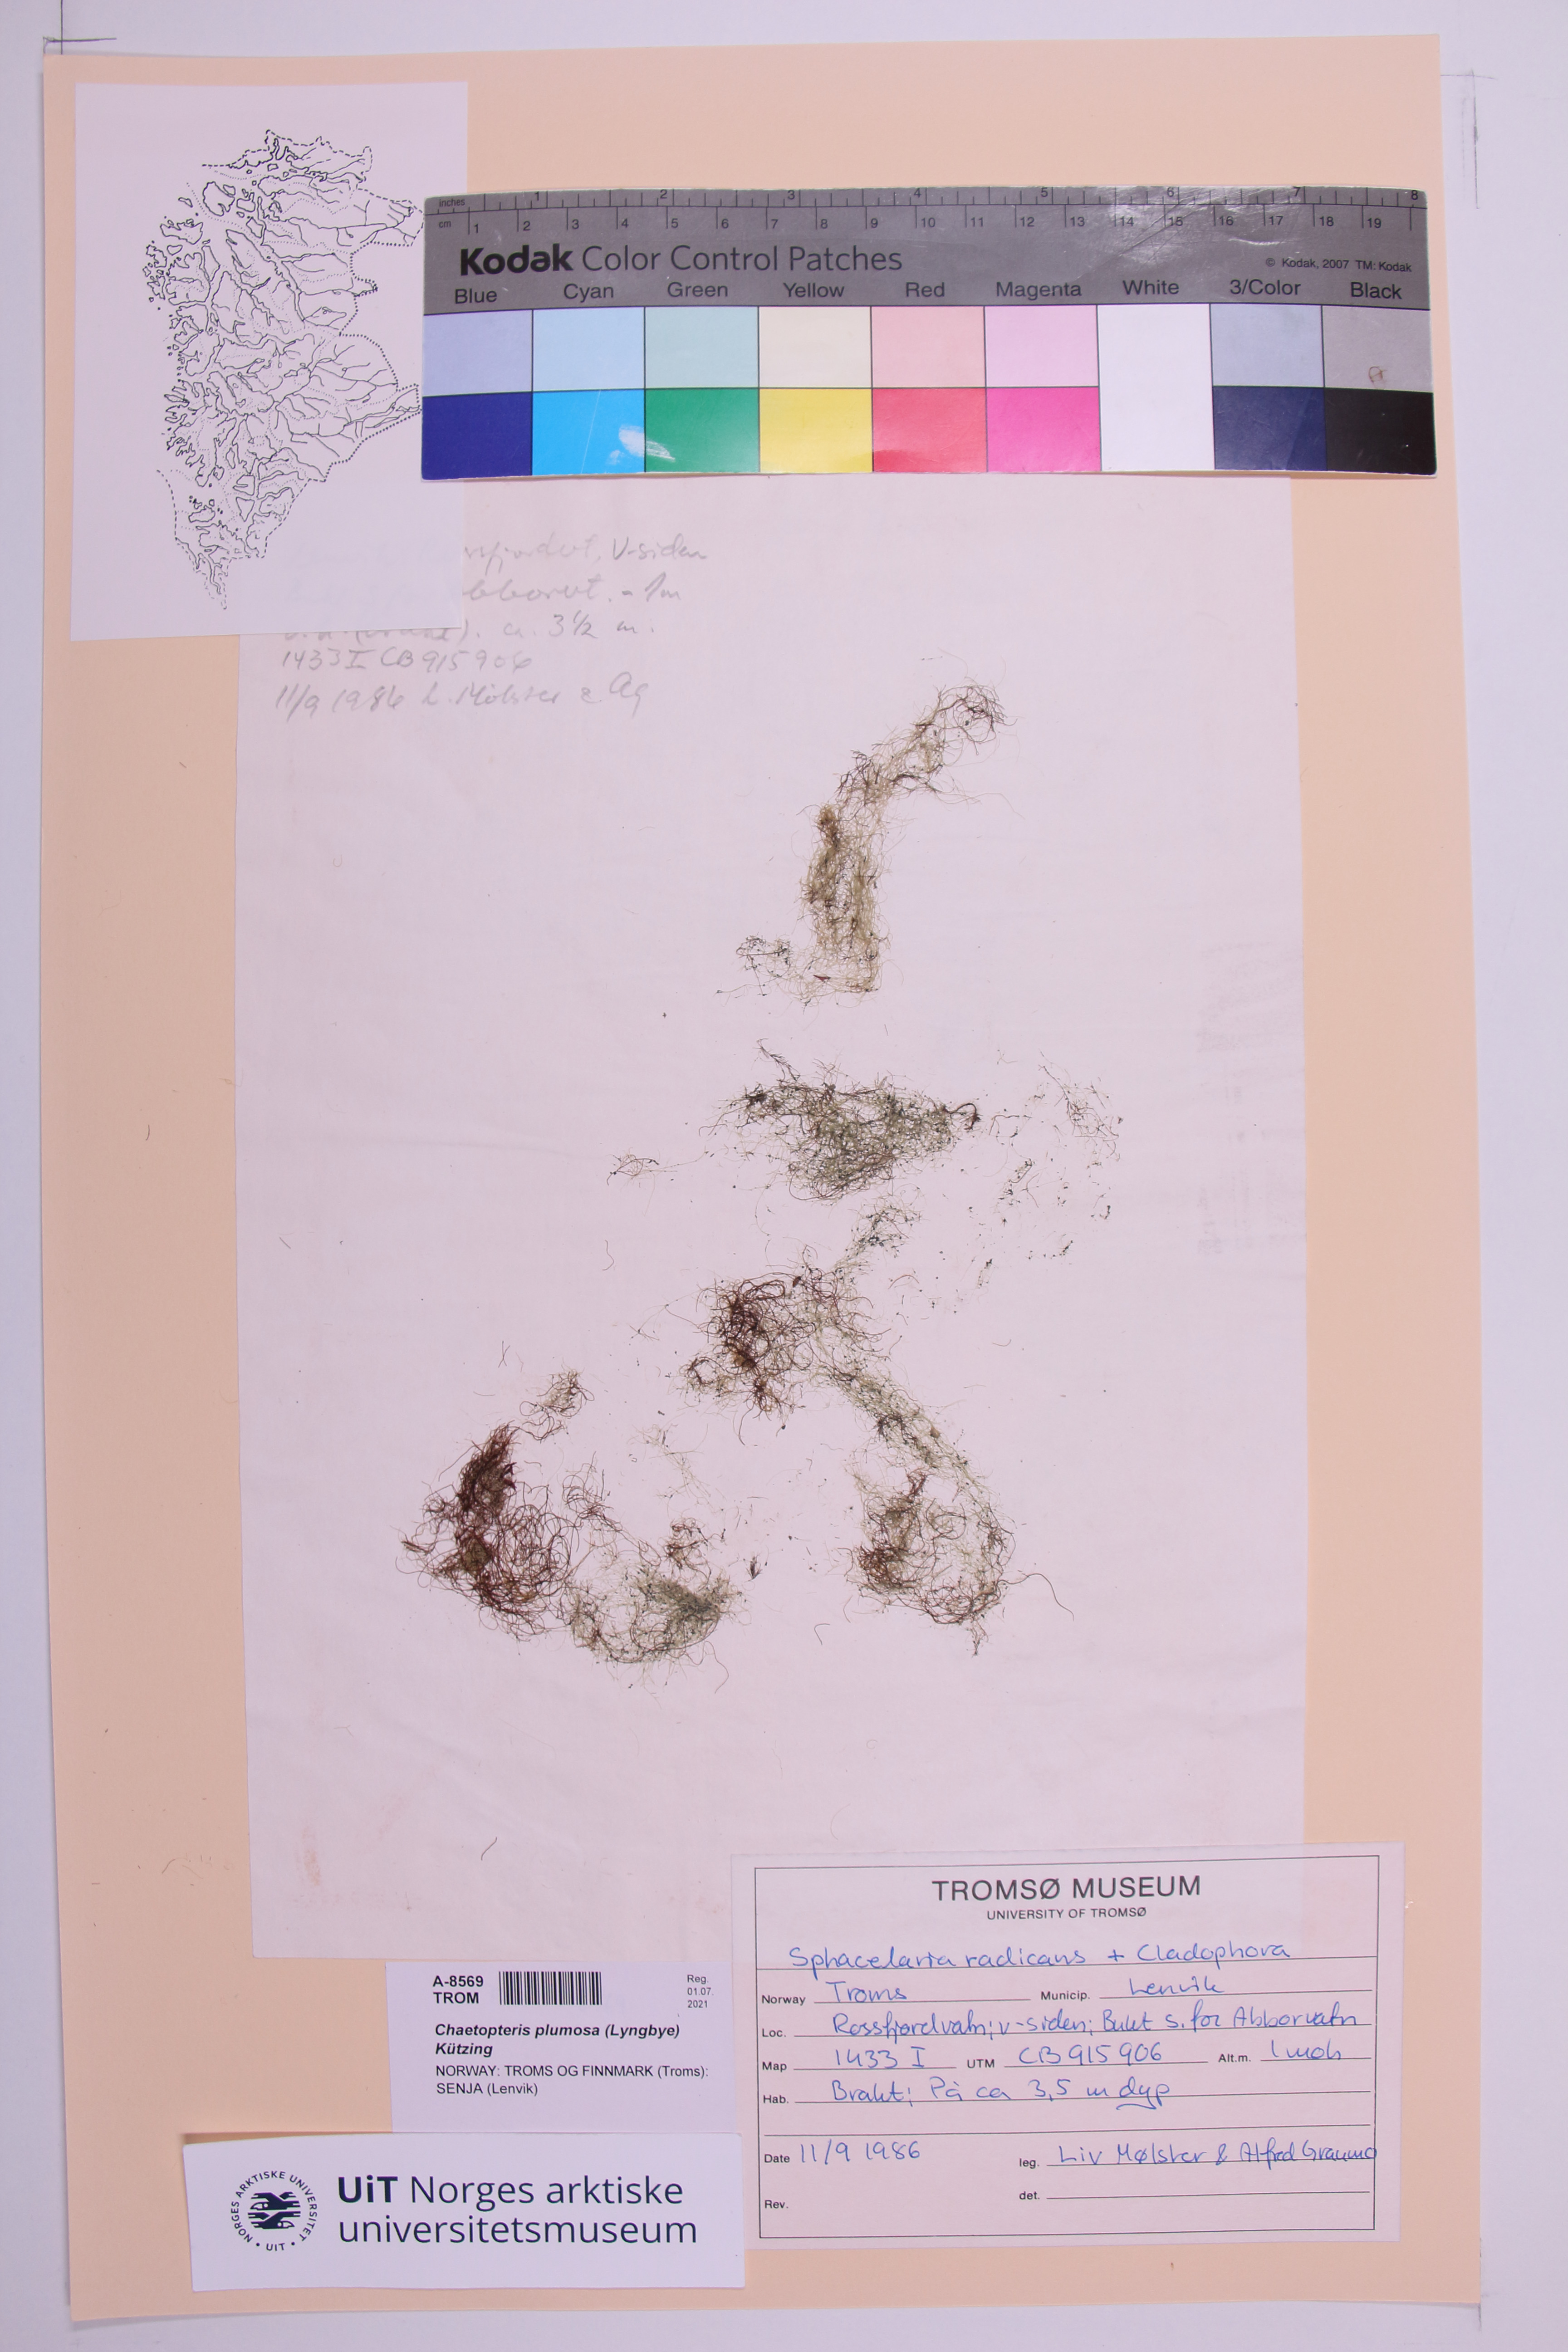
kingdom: Chromista
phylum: Ochrophyta
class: Phaeophyceae
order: Sphacelariales
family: Sphacelariaceae
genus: Battersia
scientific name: Battersia plumigera
